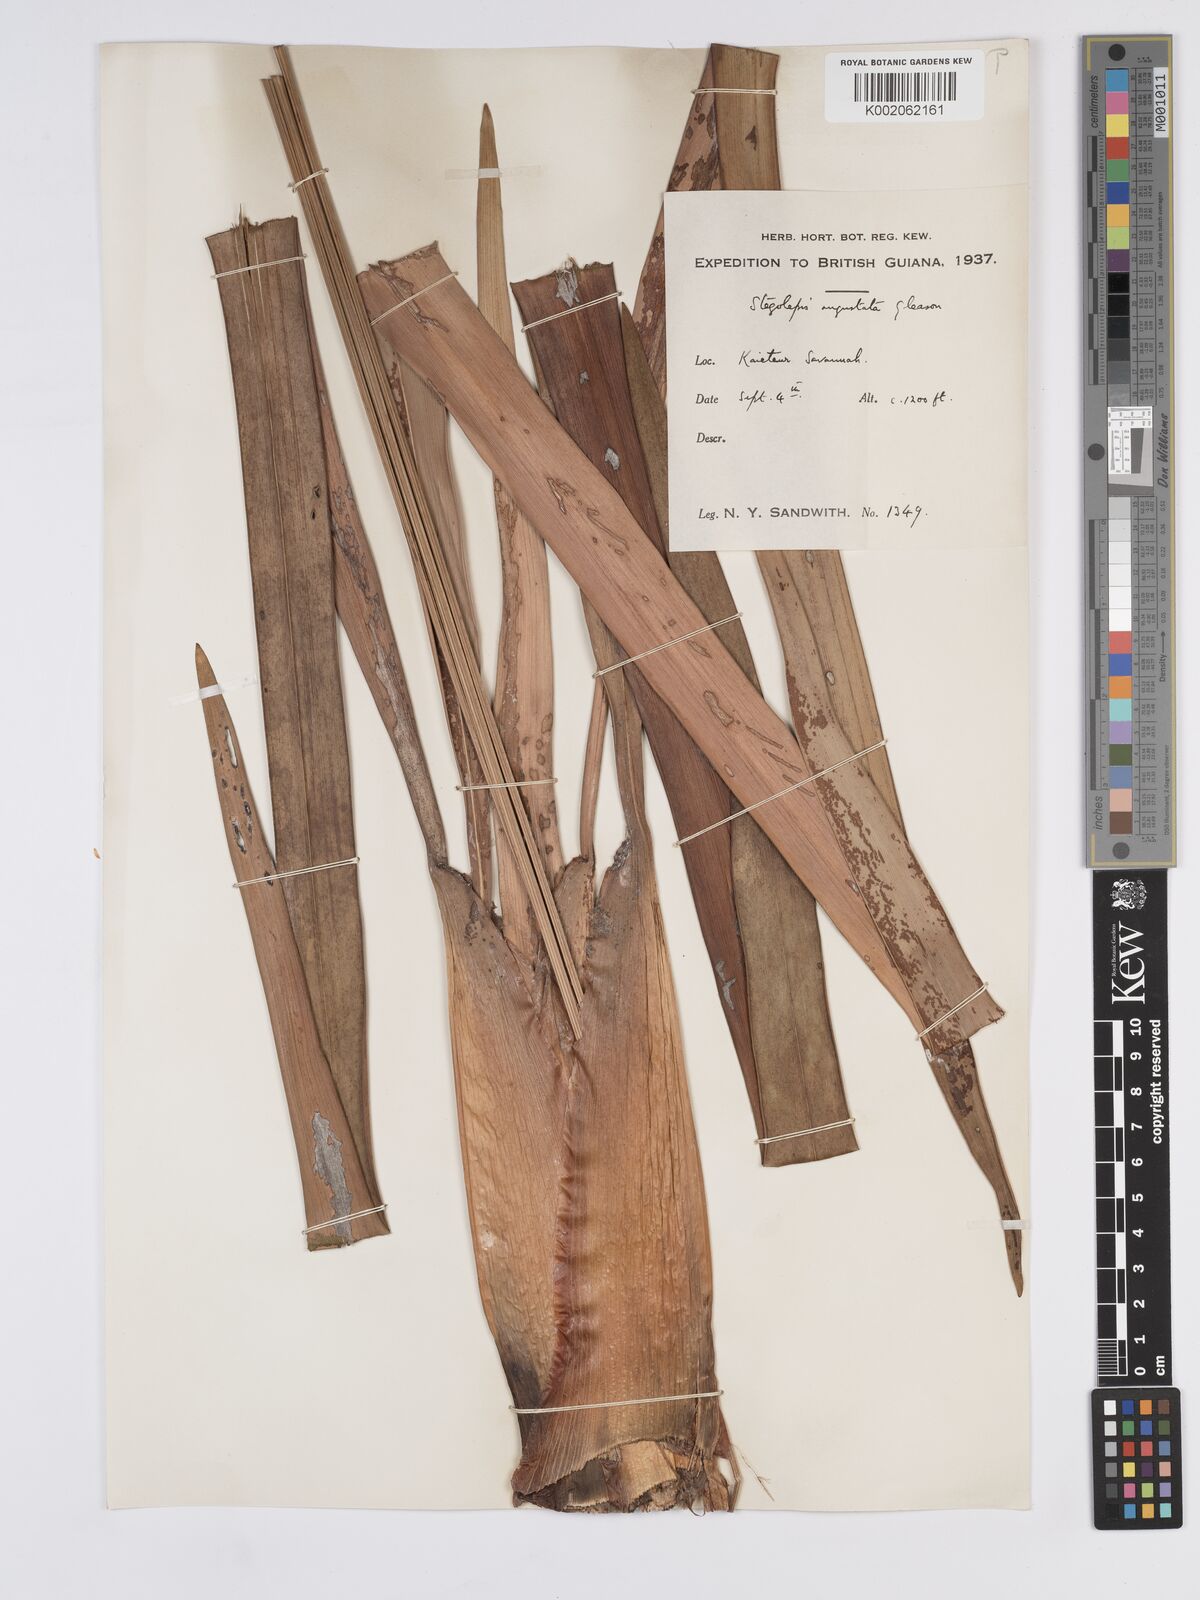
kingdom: Plantae
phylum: Tracheophyta
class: Liliopsida
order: Poales
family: Rapateaceae
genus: Stegolepis
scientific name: Stegolepis angustata
